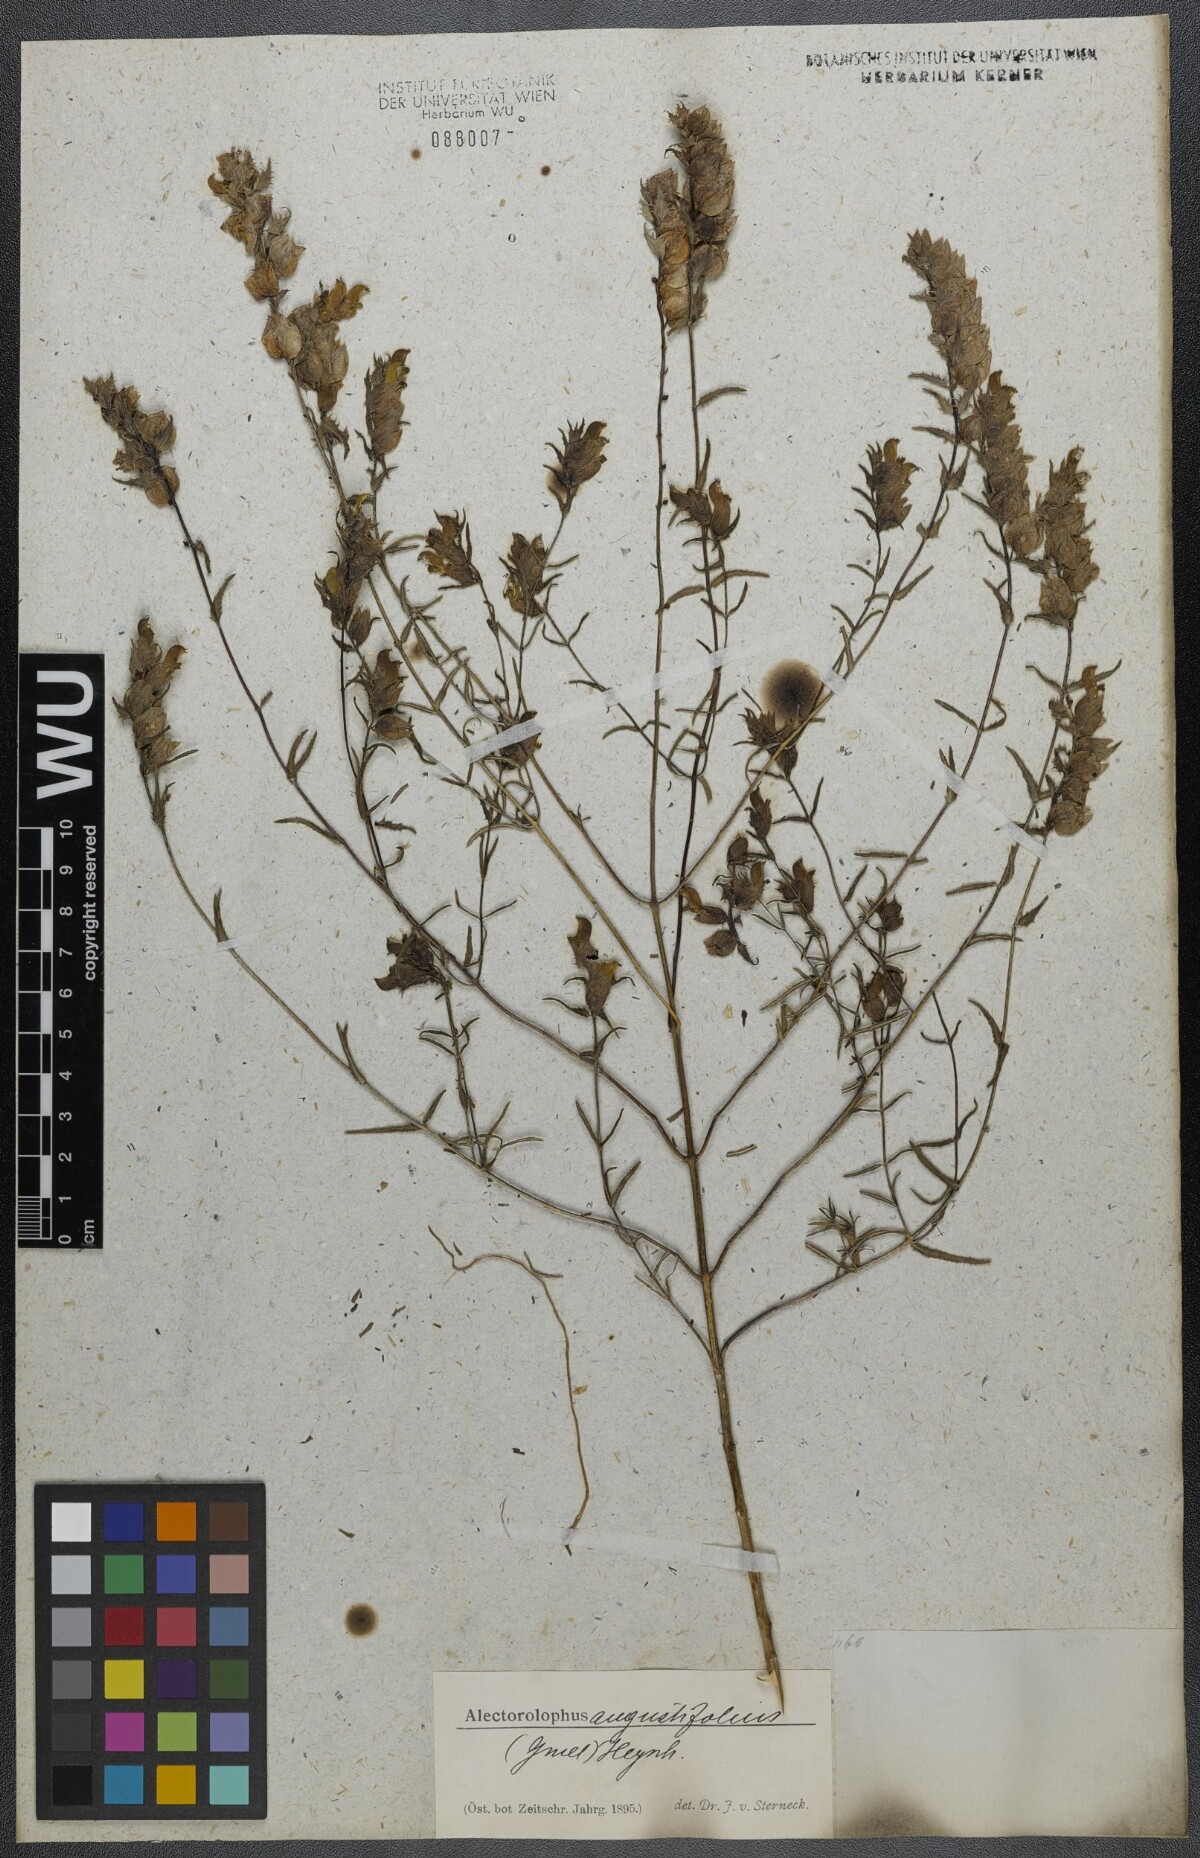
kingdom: Plantae
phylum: Tracheophyta
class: Magnoliopsida
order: Lamiales
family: Orobanchaceae
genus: Rhinanthus
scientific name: Rhinanthus
